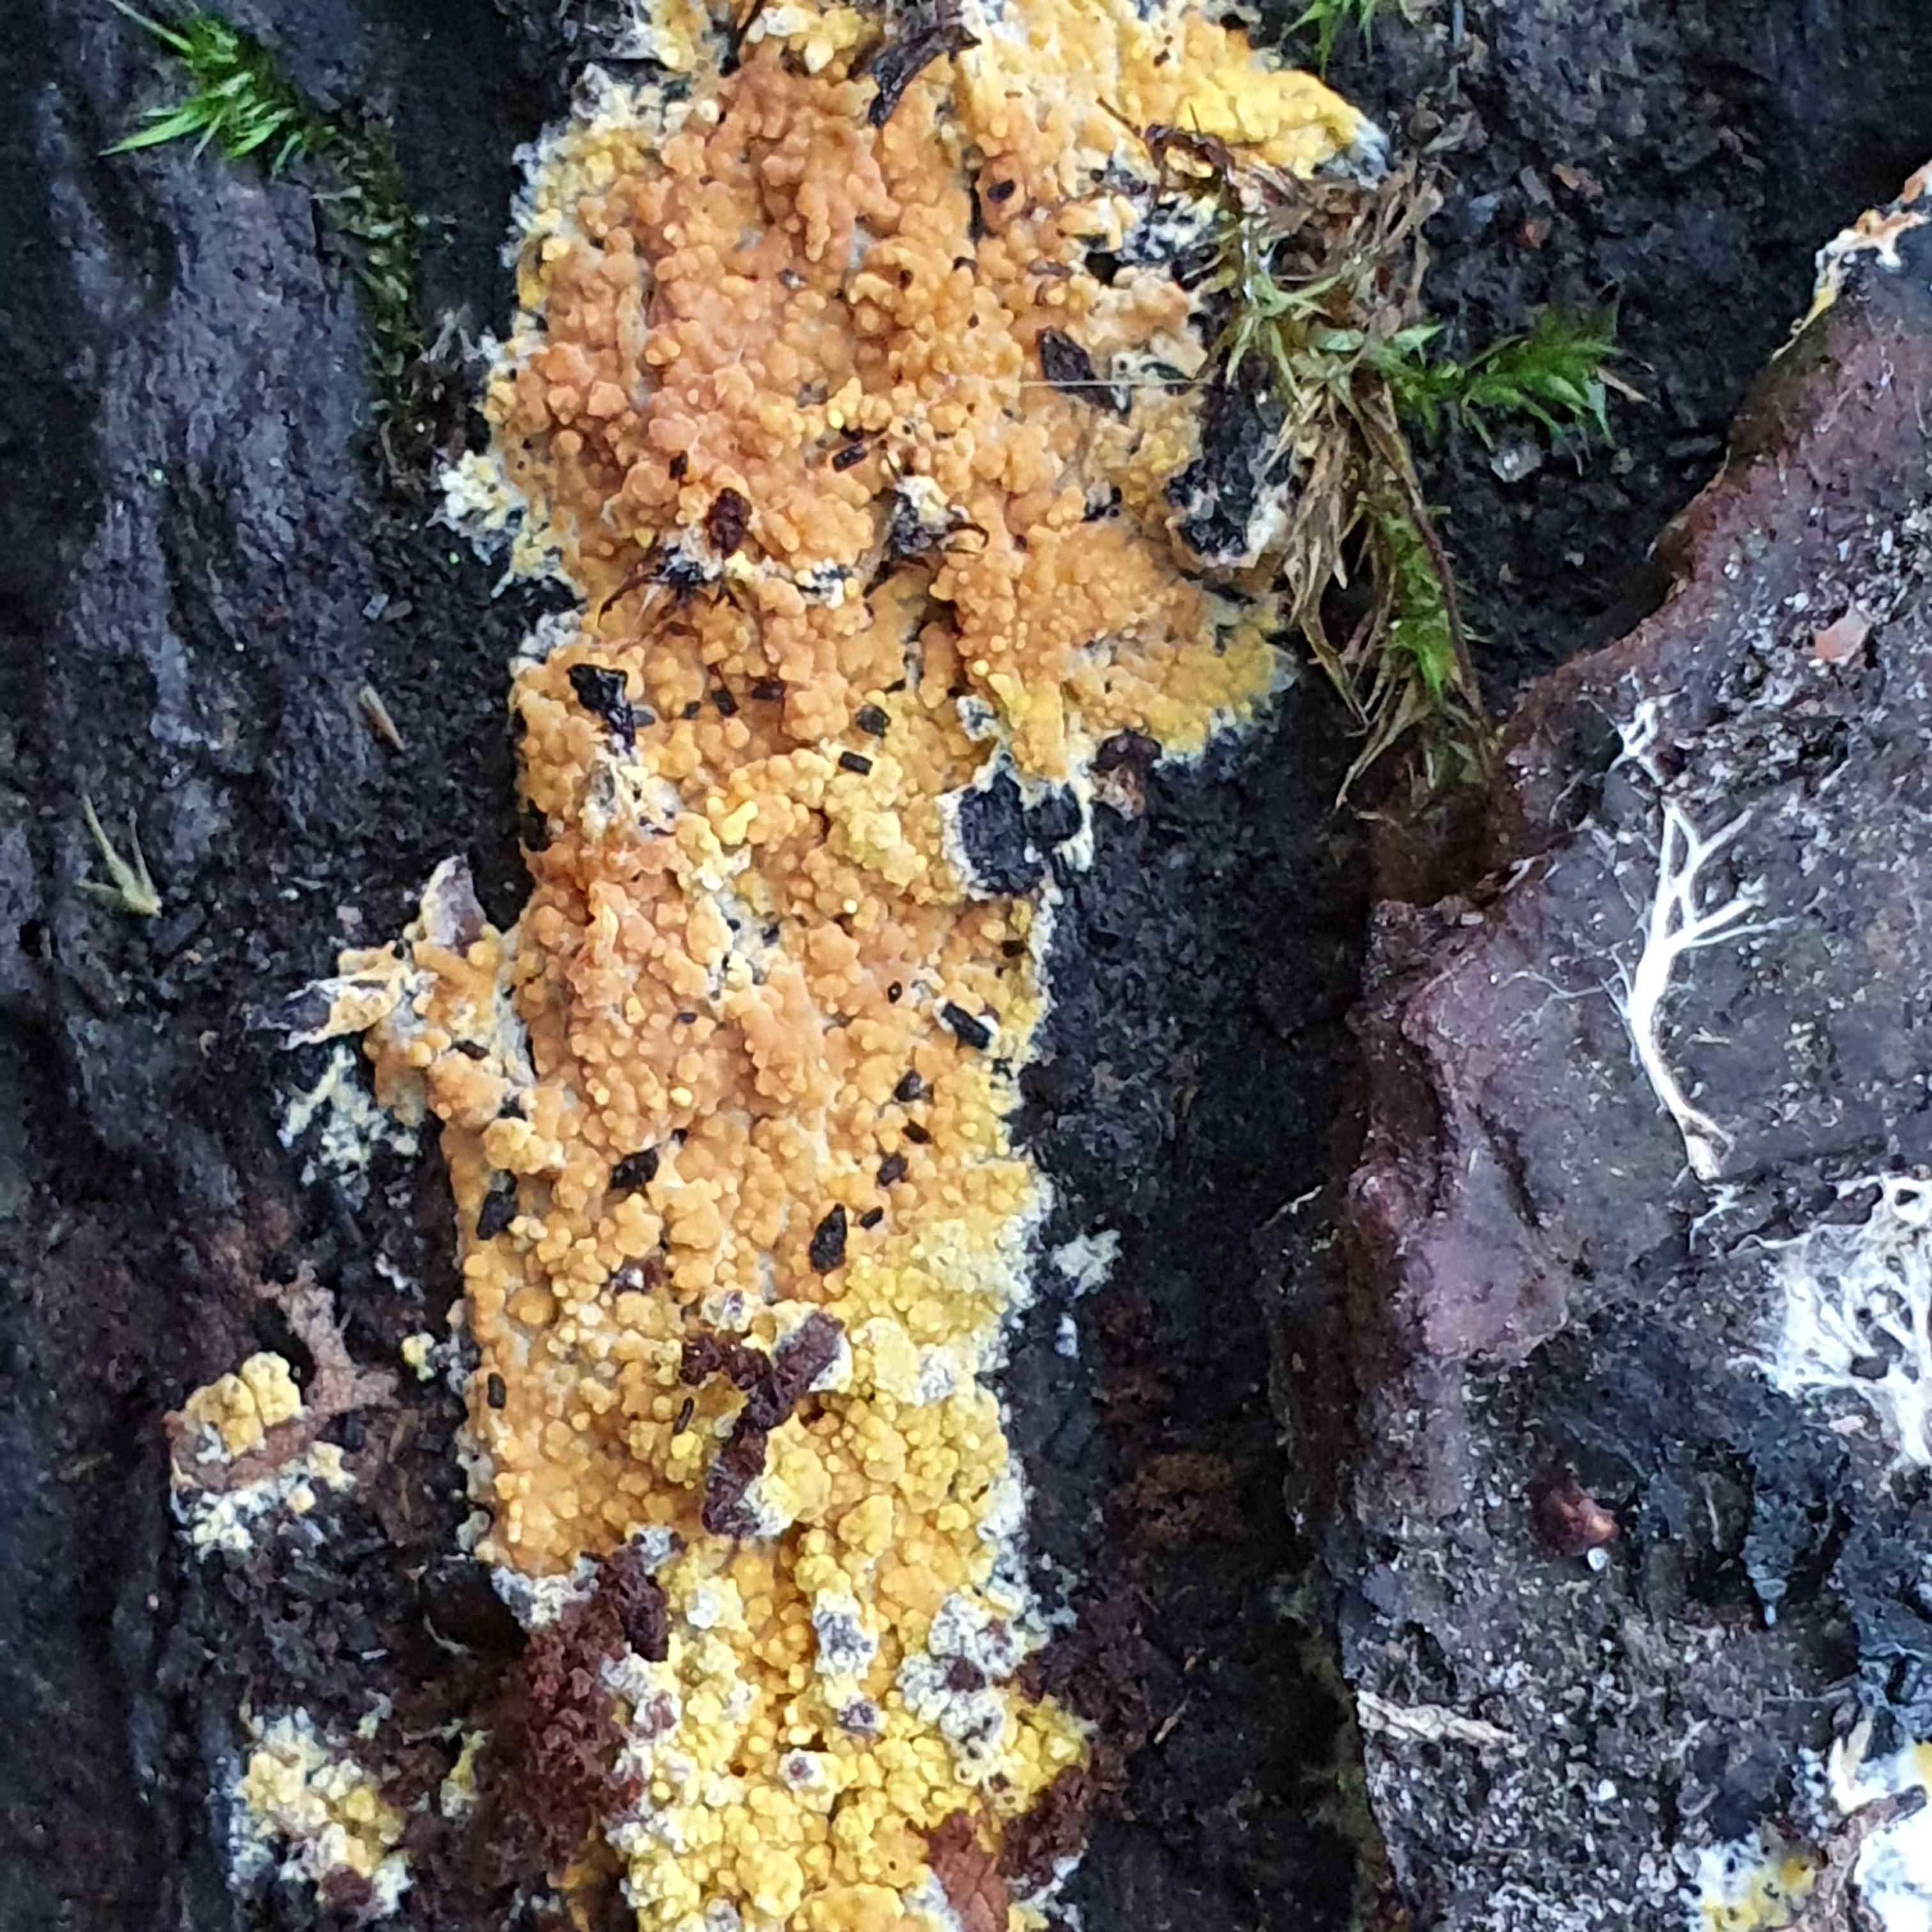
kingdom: Fungi
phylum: Basidiomycota
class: Agaricomycetes
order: Polyporales
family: Meruliaceae
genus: Phlebiodontia
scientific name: Phlebiodontia subochracea
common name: svovl-åresvamp
